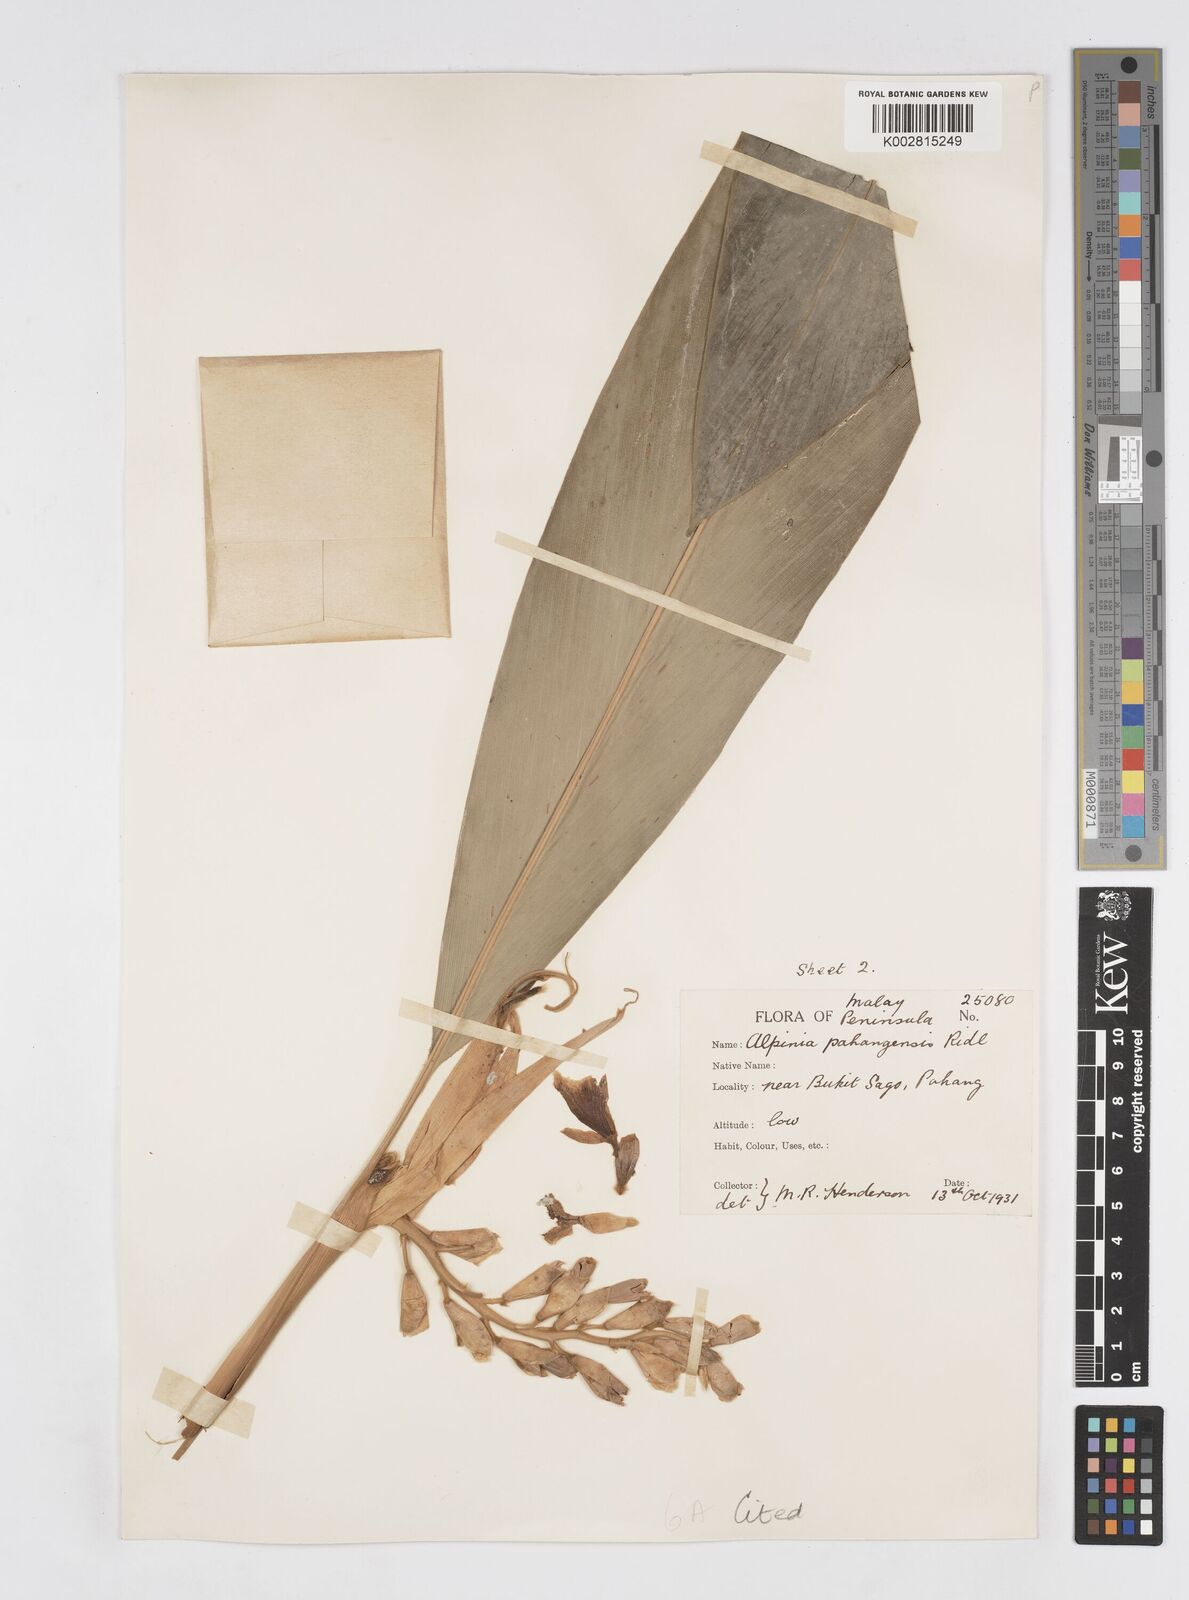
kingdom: Plantae
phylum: Tracheophyta
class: Liliopsida
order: Zingiberales
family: Zingiberaceae
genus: Alpinia
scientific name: Alpinia pahangensis
